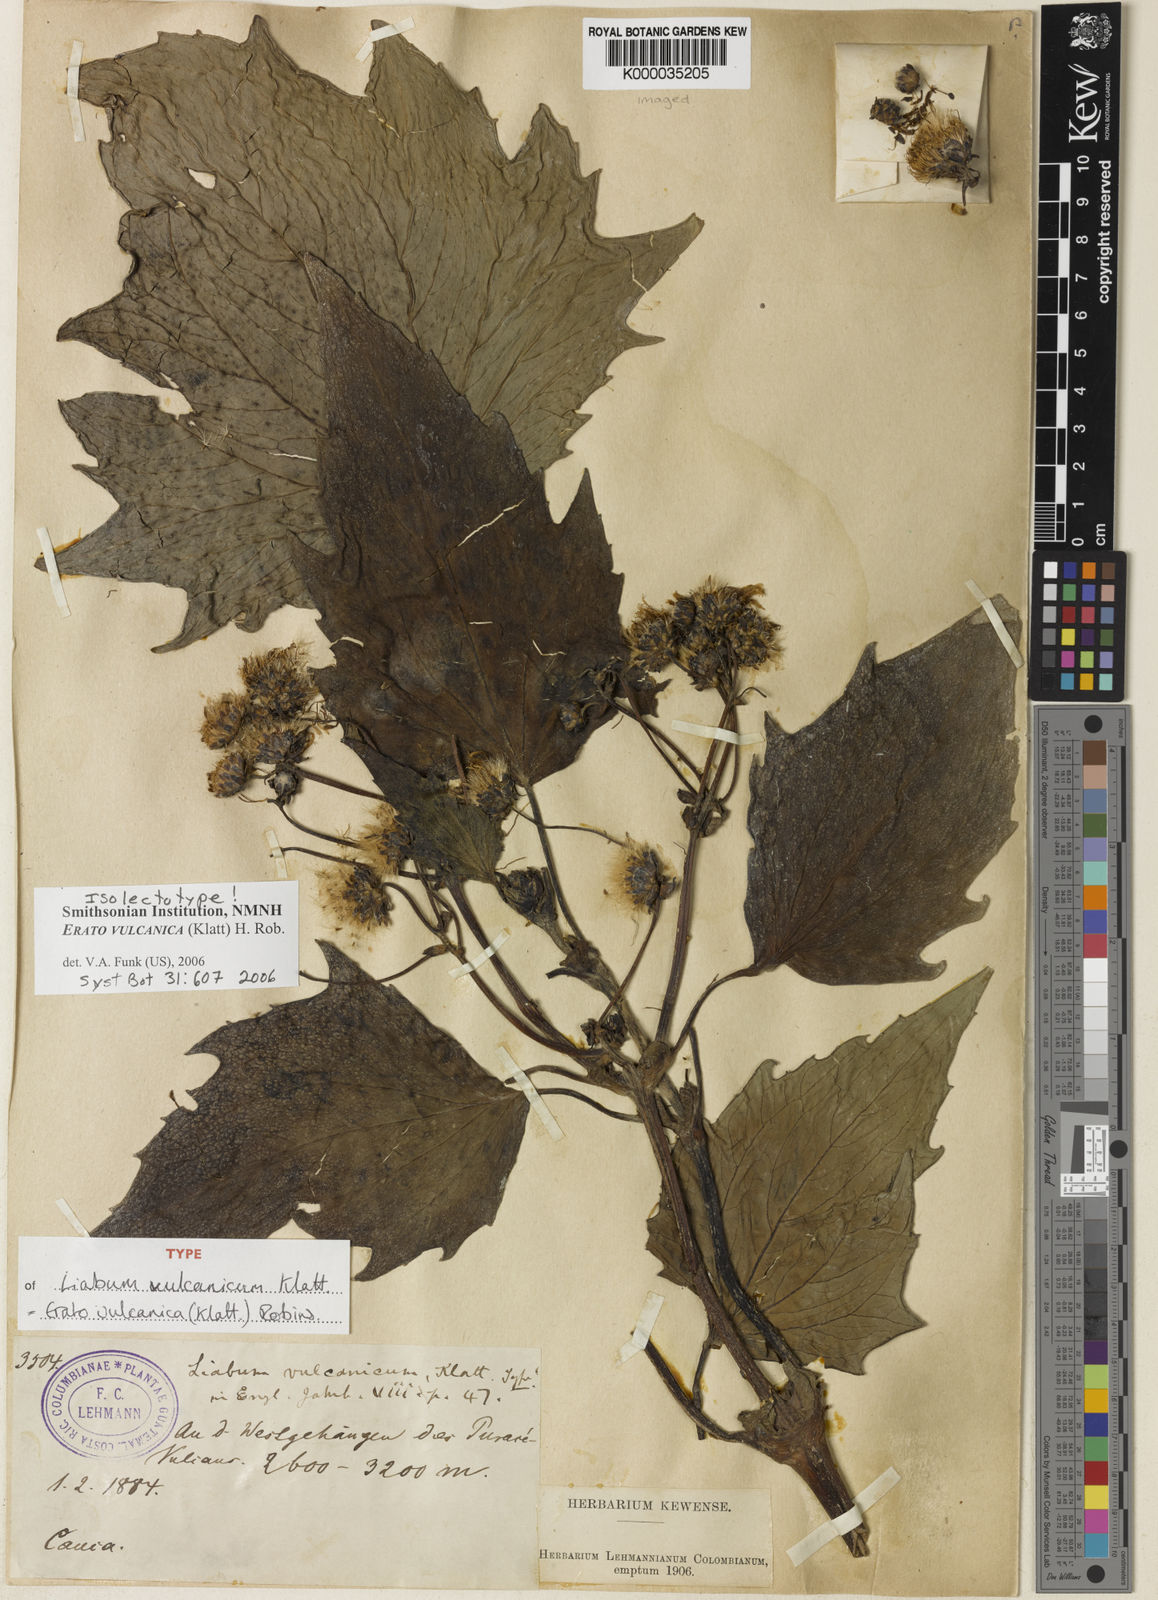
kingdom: Plantae
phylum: Tracheophyta
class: Magnoliopsida
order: Asterales
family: Asteraceae
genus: Erato
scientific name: Erato vulcanica
